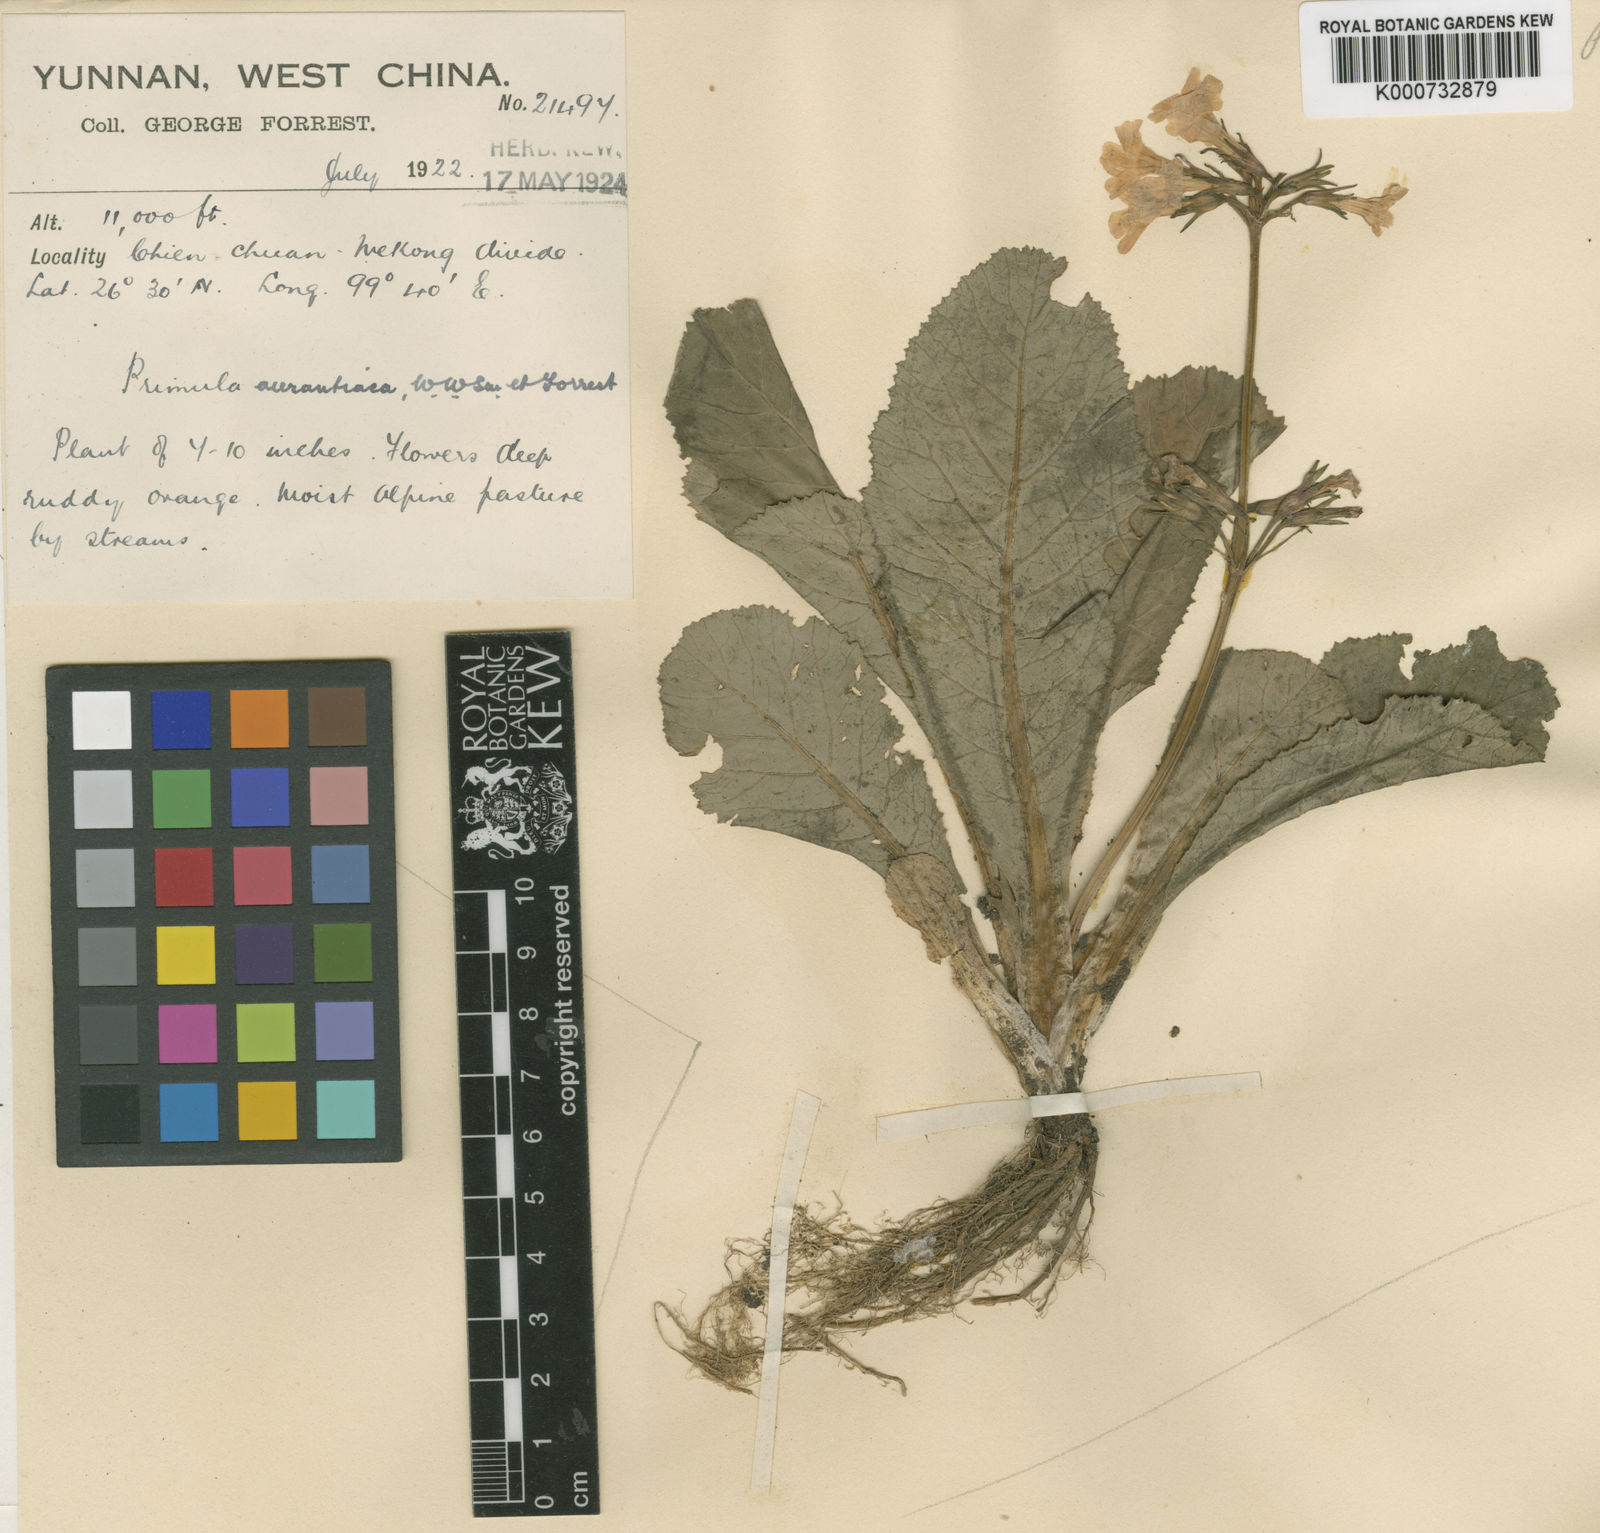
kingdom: Plantae
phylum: Tracheophyta
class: Magnoliopsida
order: Ericales
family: Primulaceae
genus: Primula
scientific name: Primula aurantiaca
